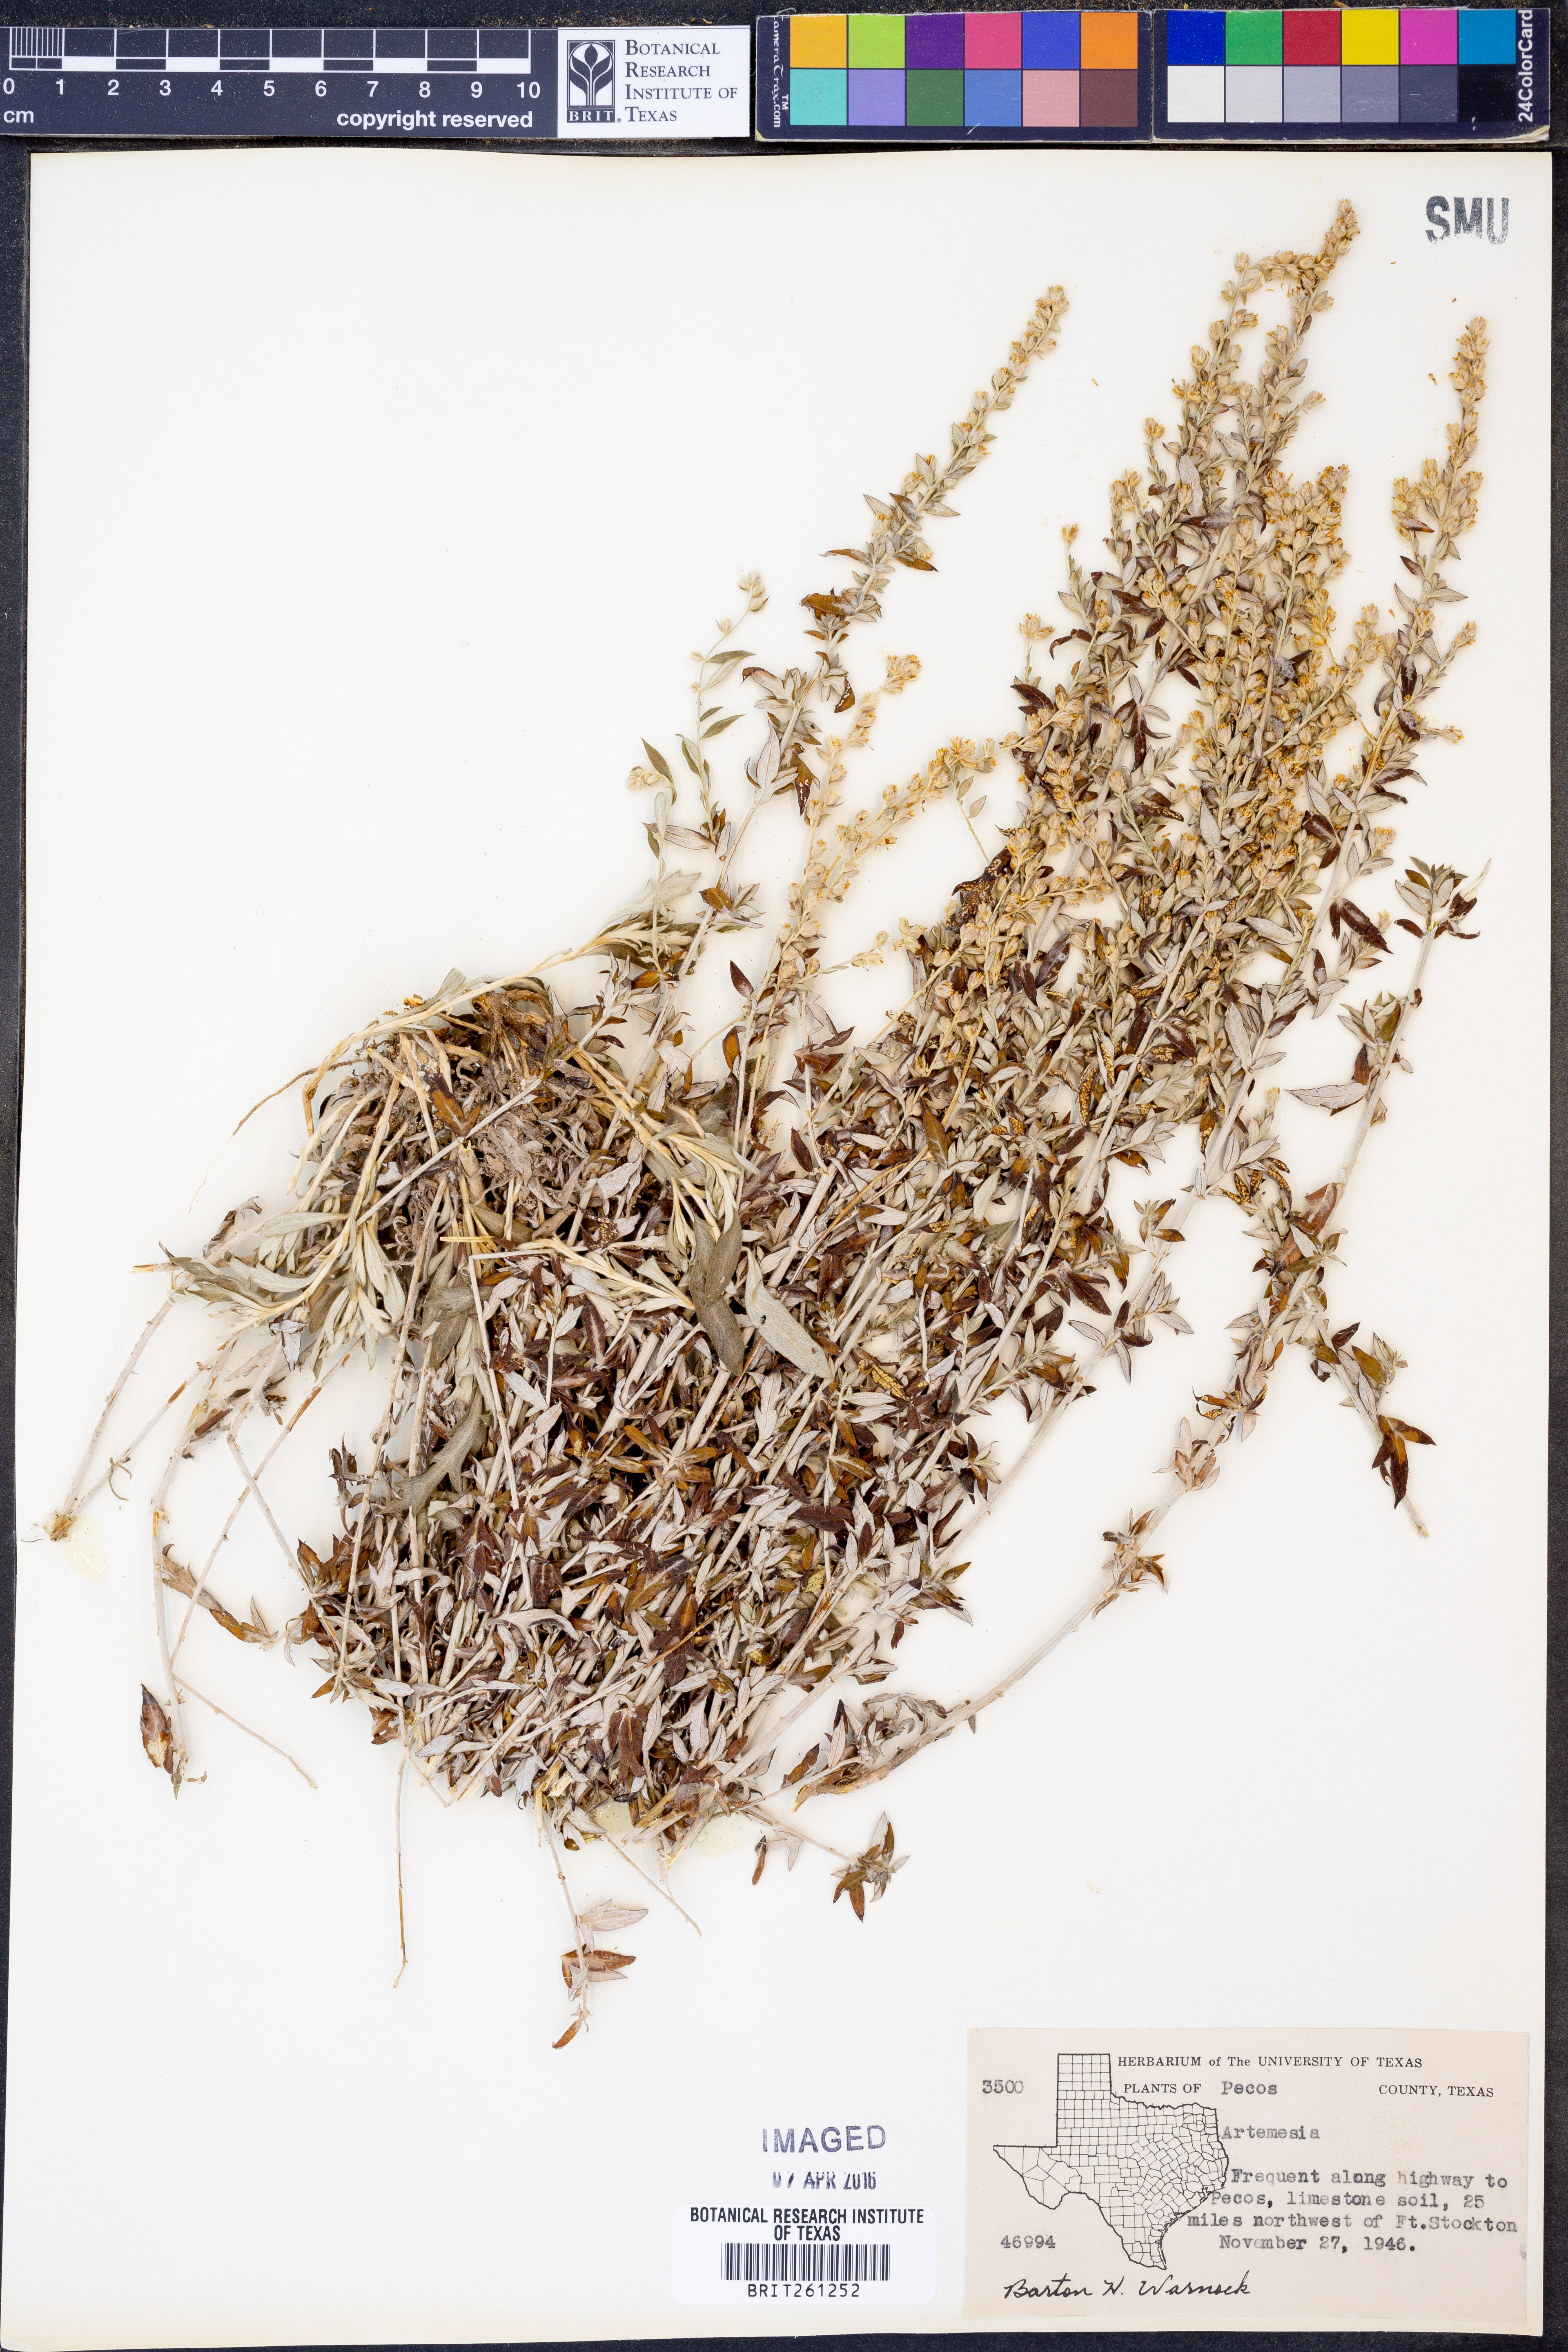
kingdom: Plantae
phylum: Tracheophyta
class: Magnoliopsida
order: Asterales
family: Asteraceae
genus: Artemisia
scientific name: Artemisia
